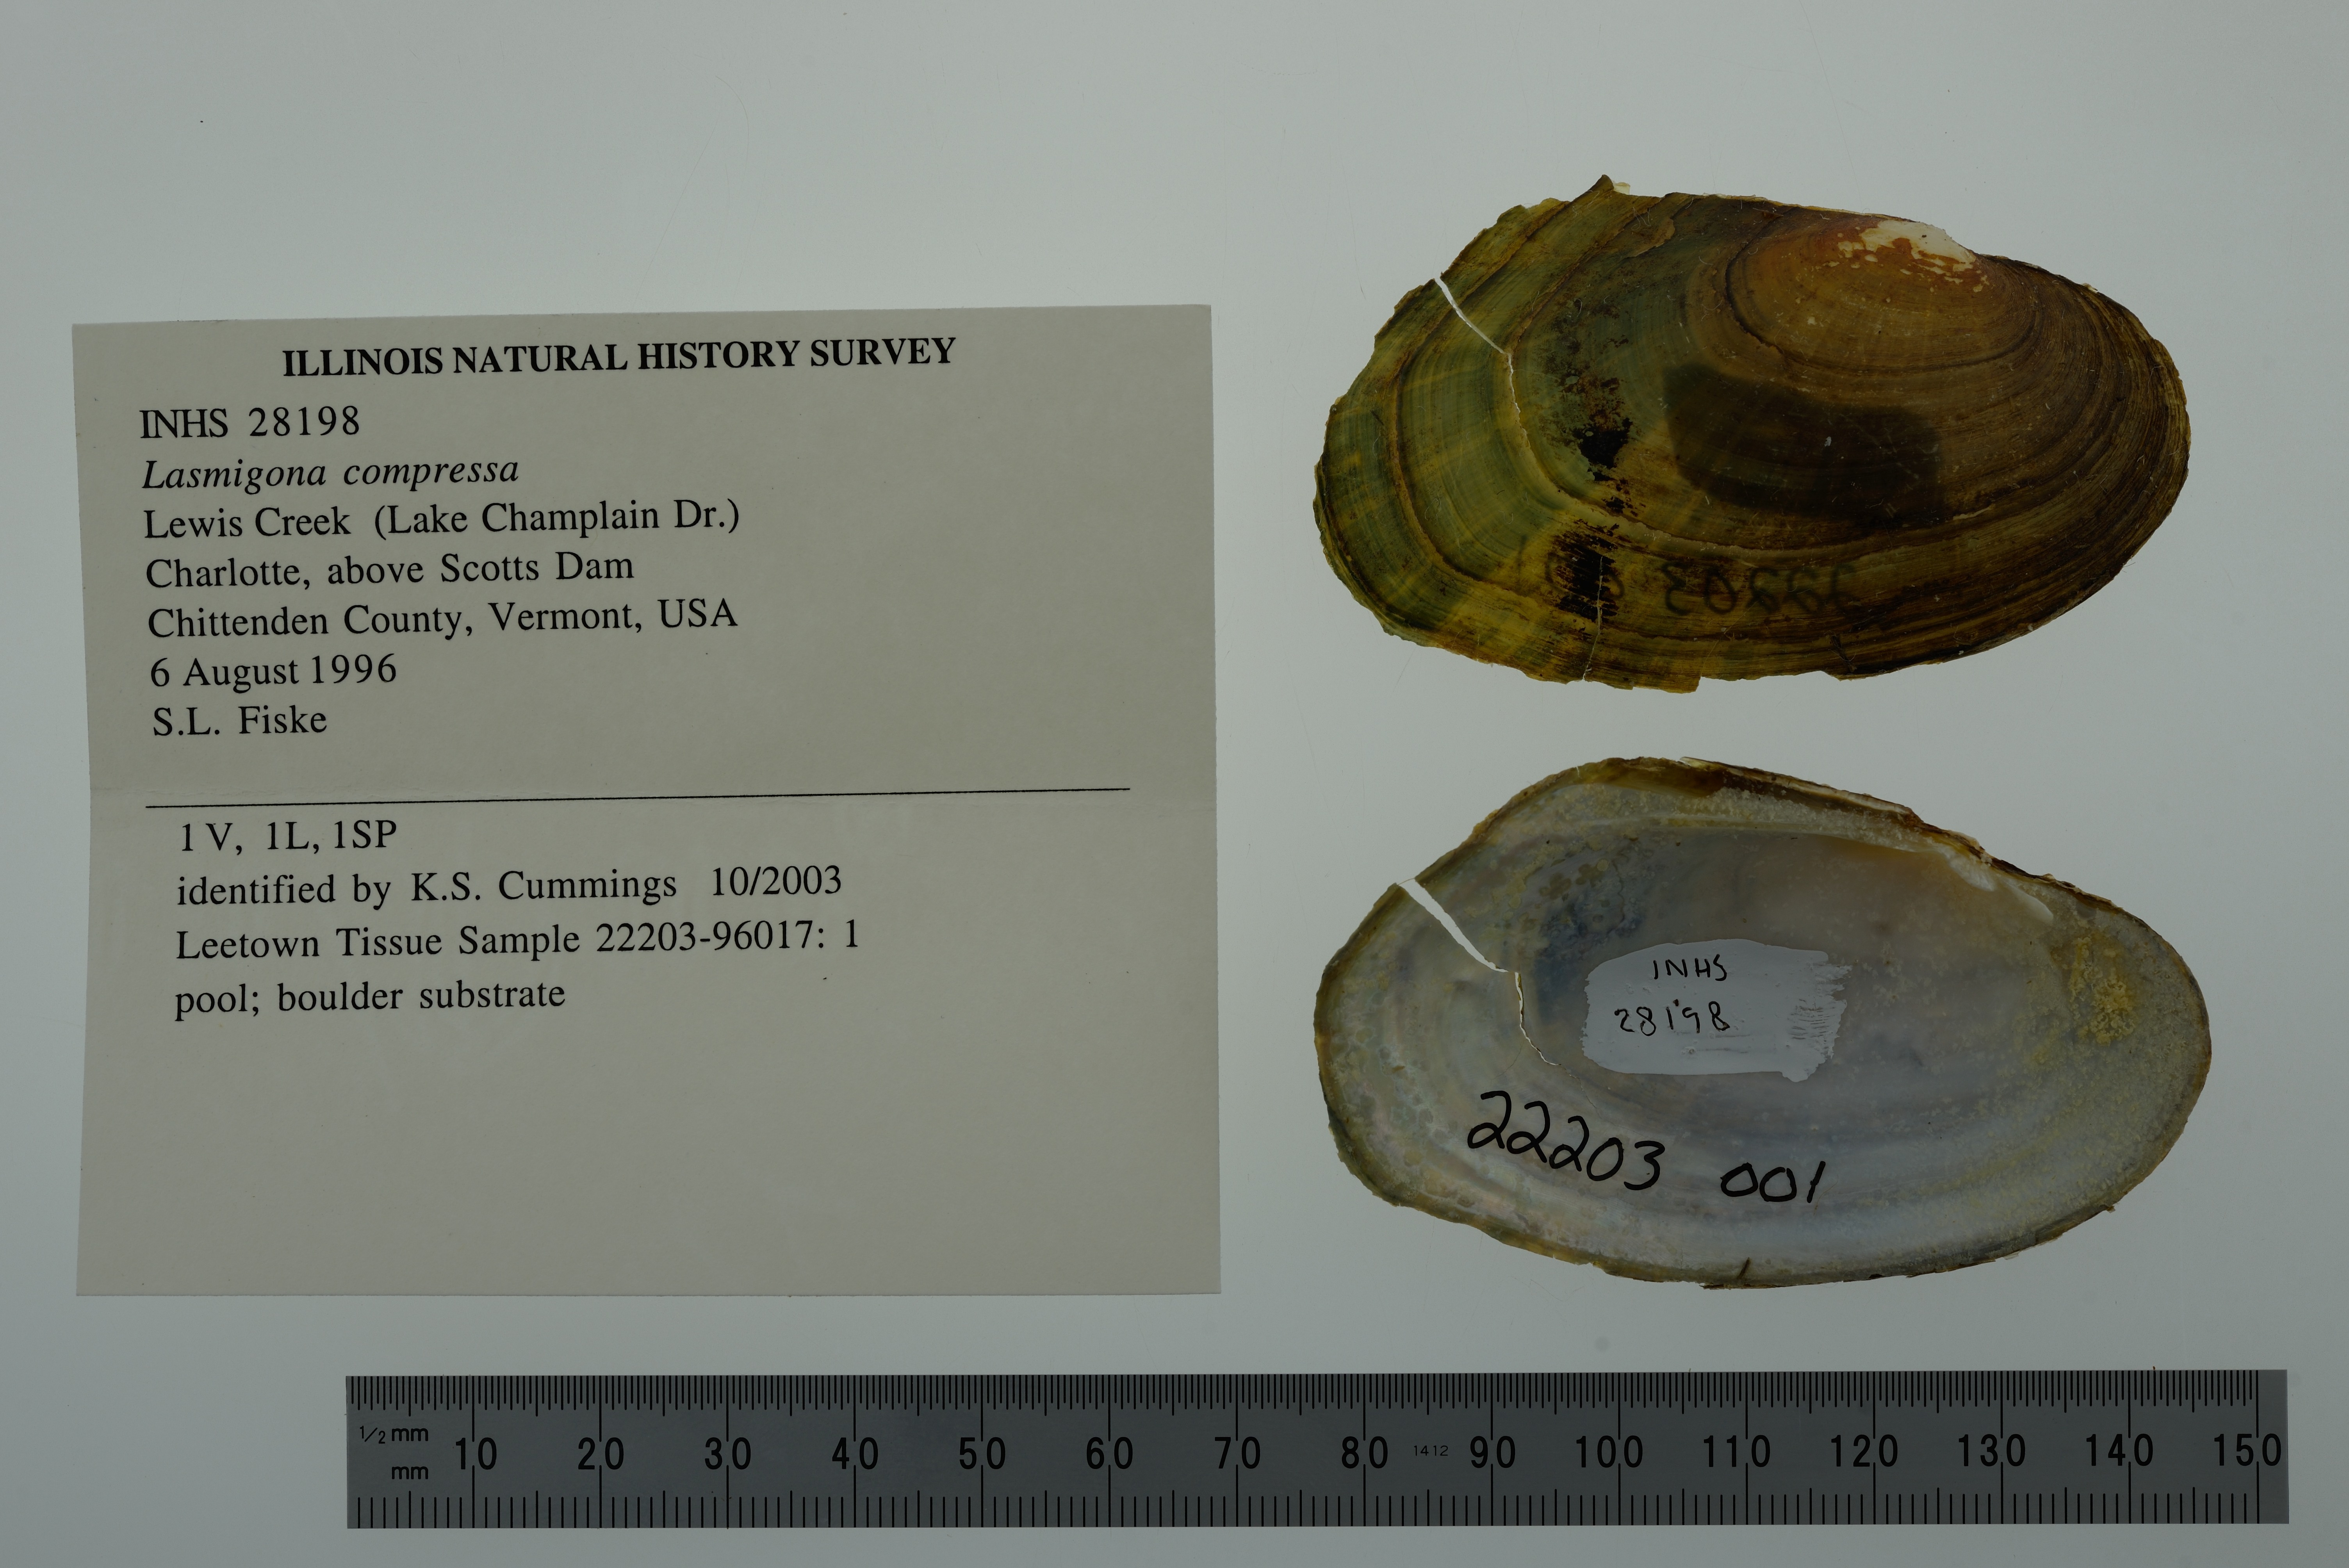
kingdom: Animalia
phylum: Mollusca
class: Bivalvia
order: Unionida
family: Unionidae
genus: Lasmigona
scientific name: Lasmigona compressa
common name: Creek heelsplitter
